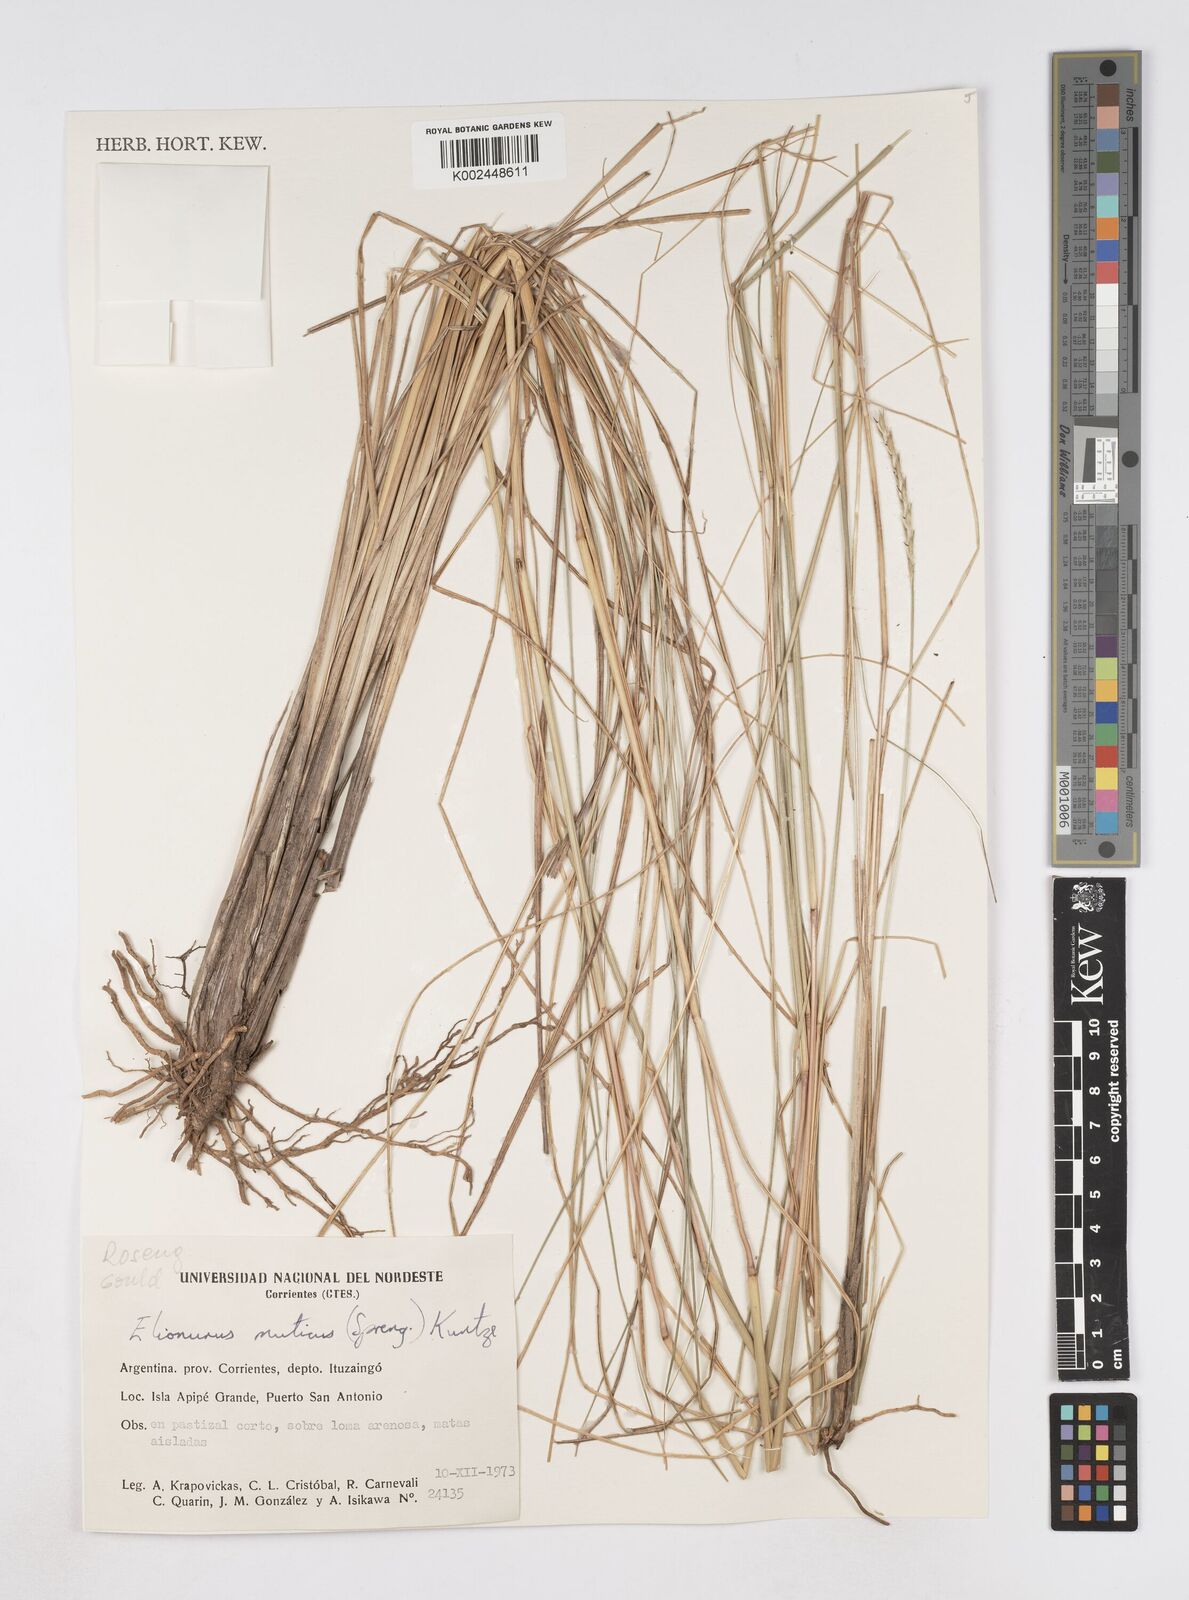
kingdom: Plantae
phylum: Tracheophyta
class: Liliopsida
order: Poales
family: Poaceae
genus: Elionurus
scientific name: Elionurus muticus
